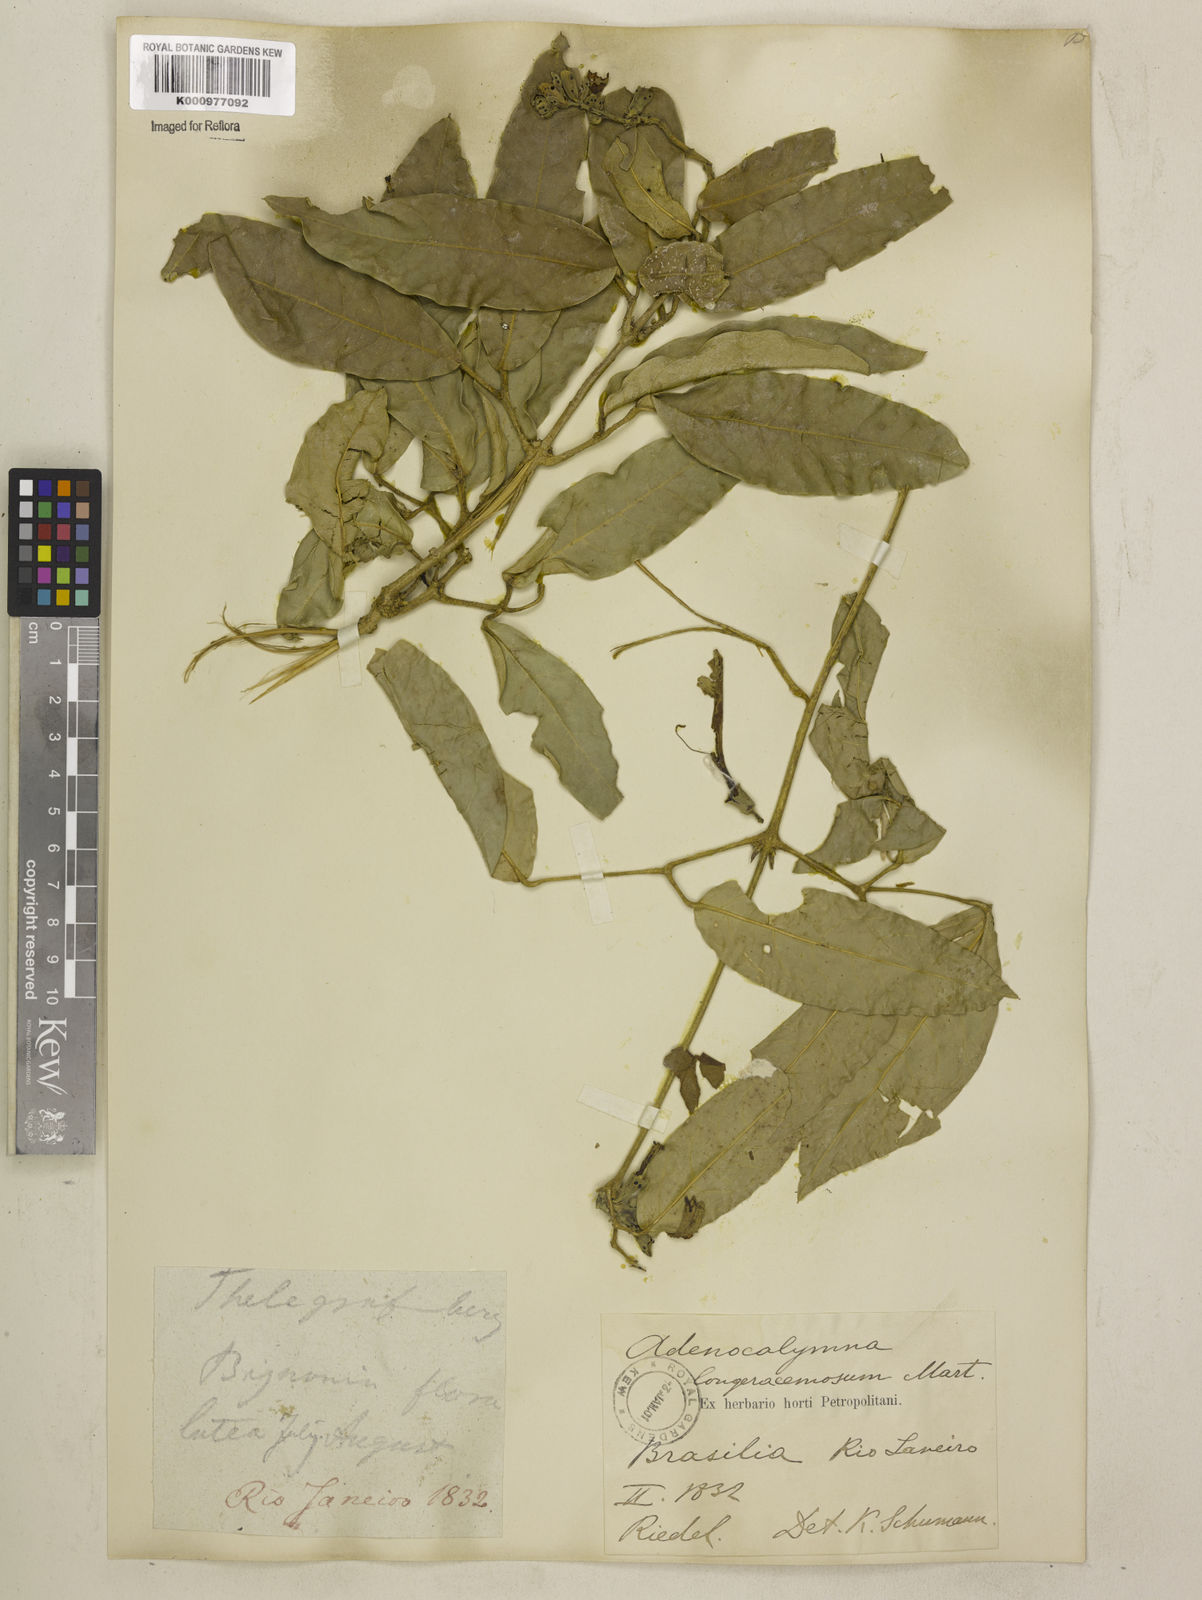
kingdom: Plantae
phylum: Tracheophyta
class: Magnoliopsida
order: Lamiales
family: Bignoniaceae
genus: Adenocalymma
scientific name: Adenocalymma trifoliatum
